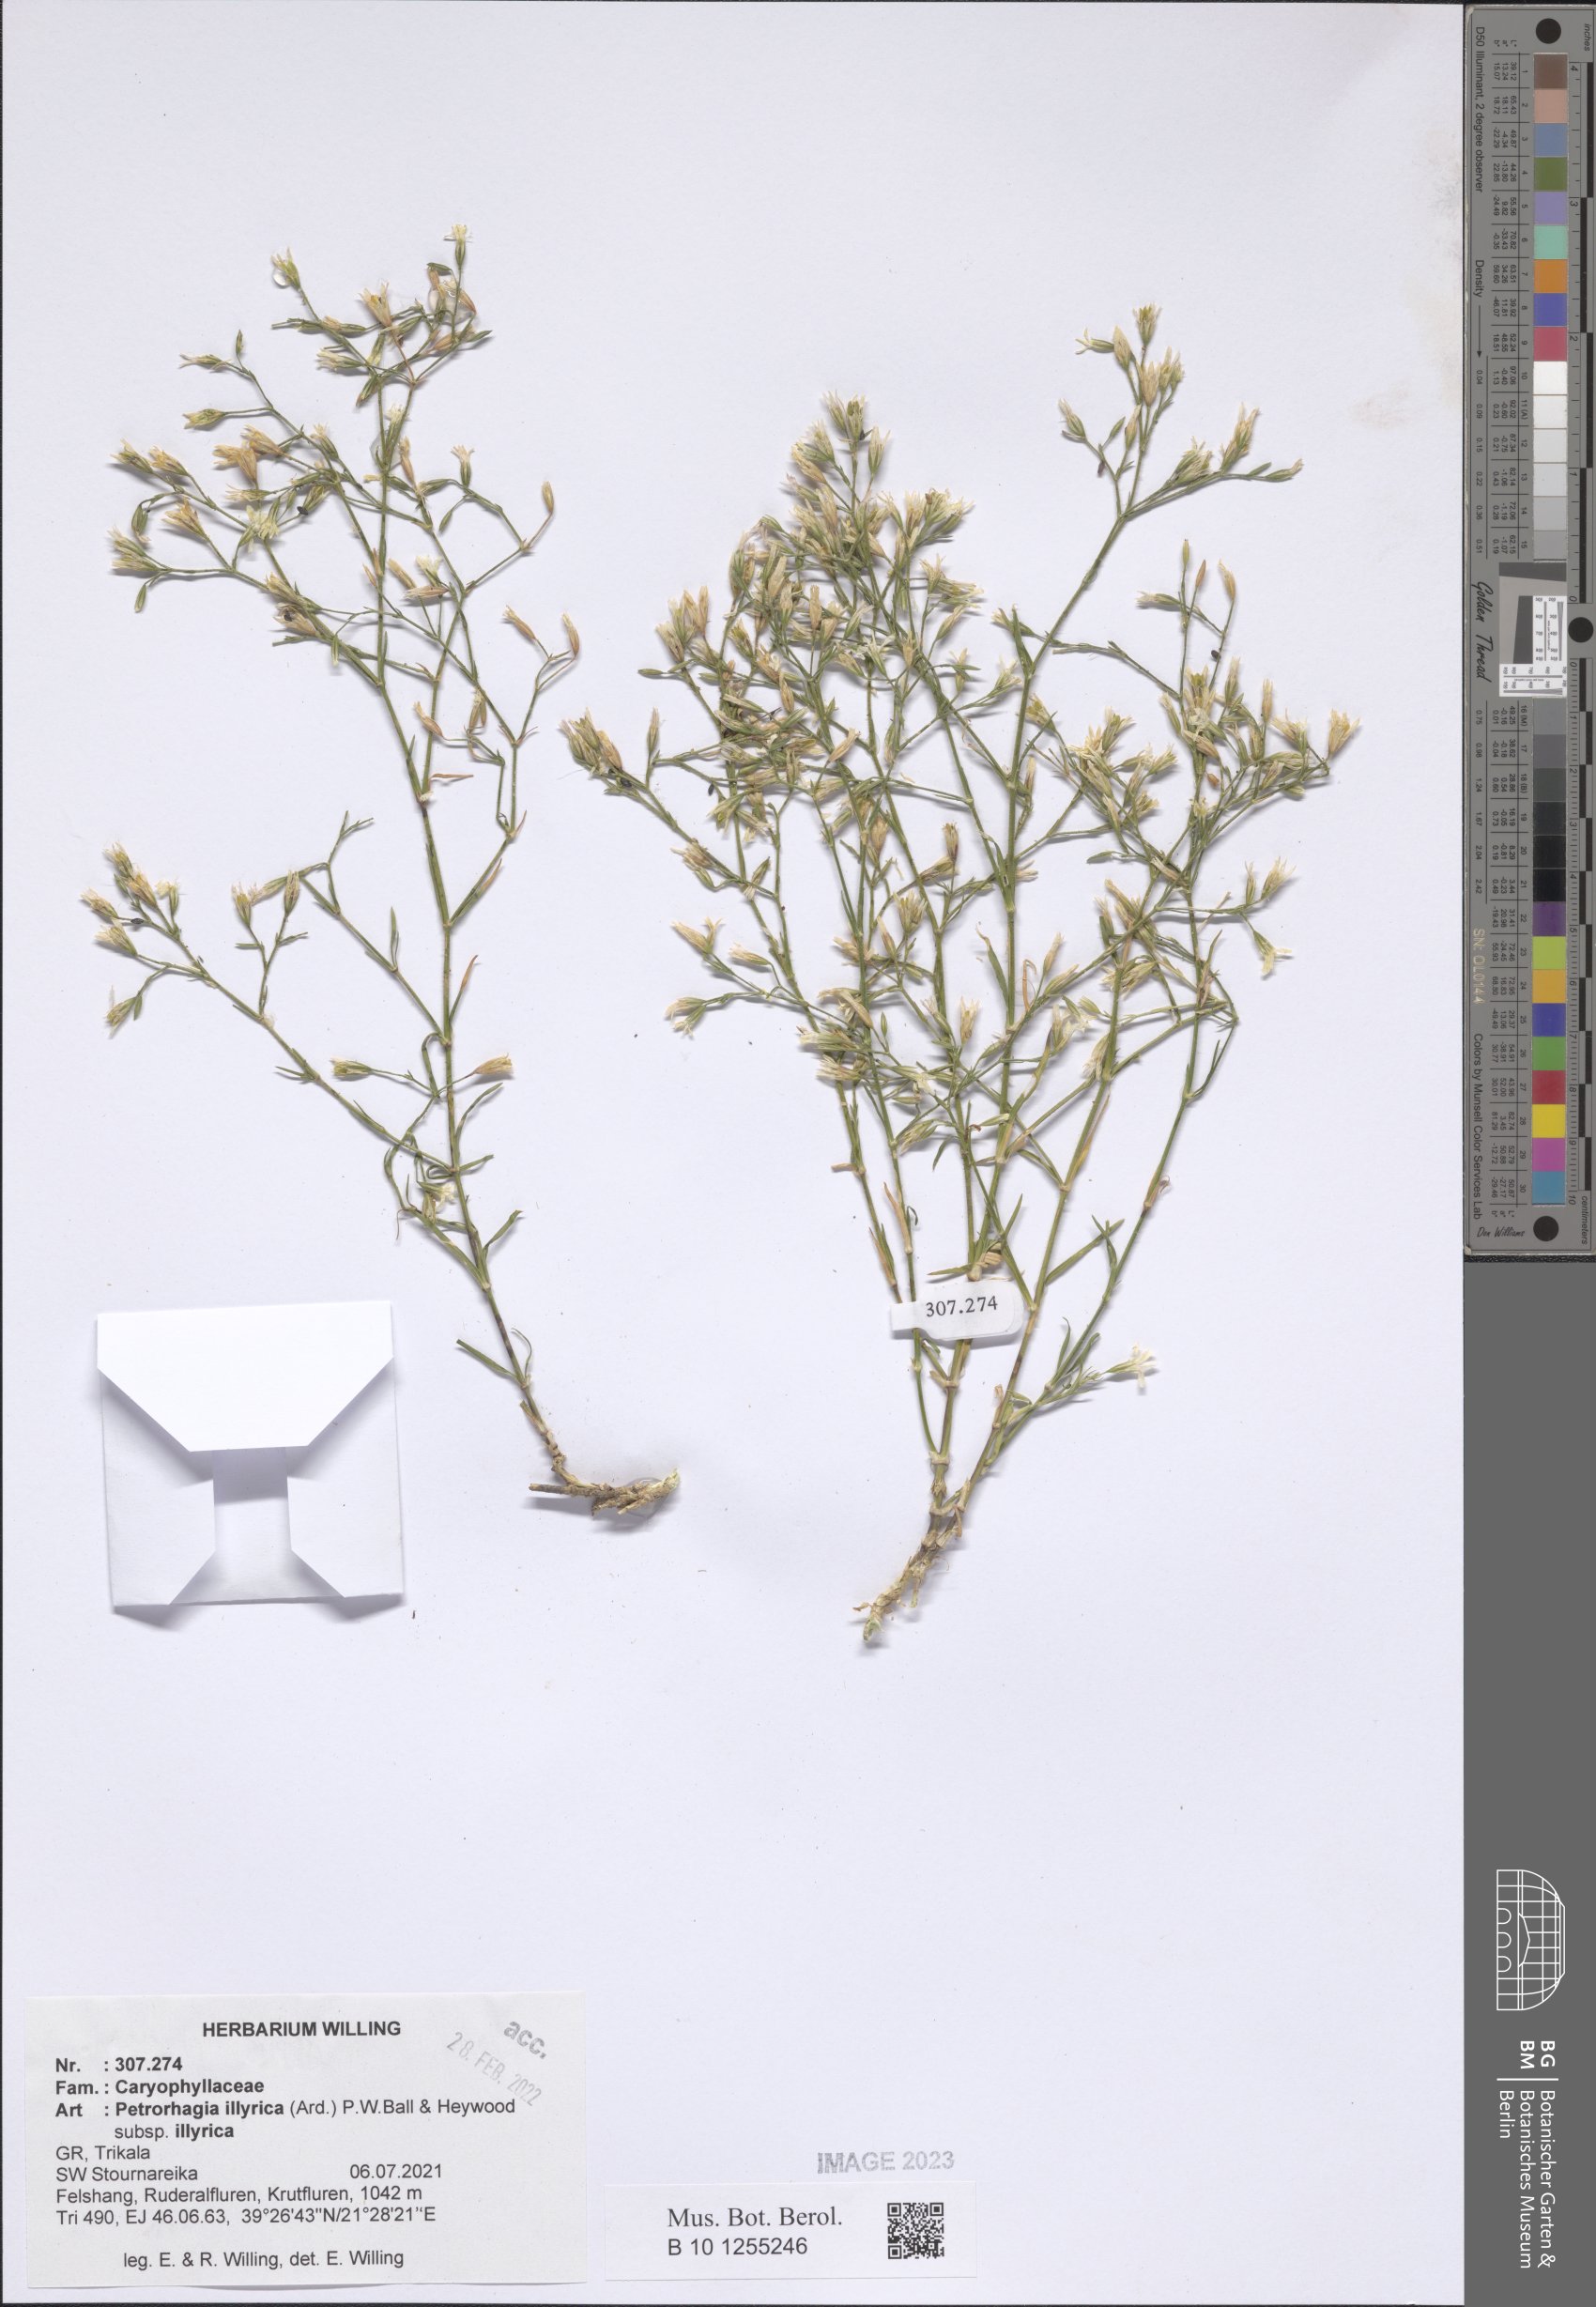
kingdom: Plantae
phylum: Tracheophyta
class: Magnoliopsida
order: Caryophyllales
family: Caryophyllaceae
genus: Dianthus
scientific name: Dianthus illyricus
